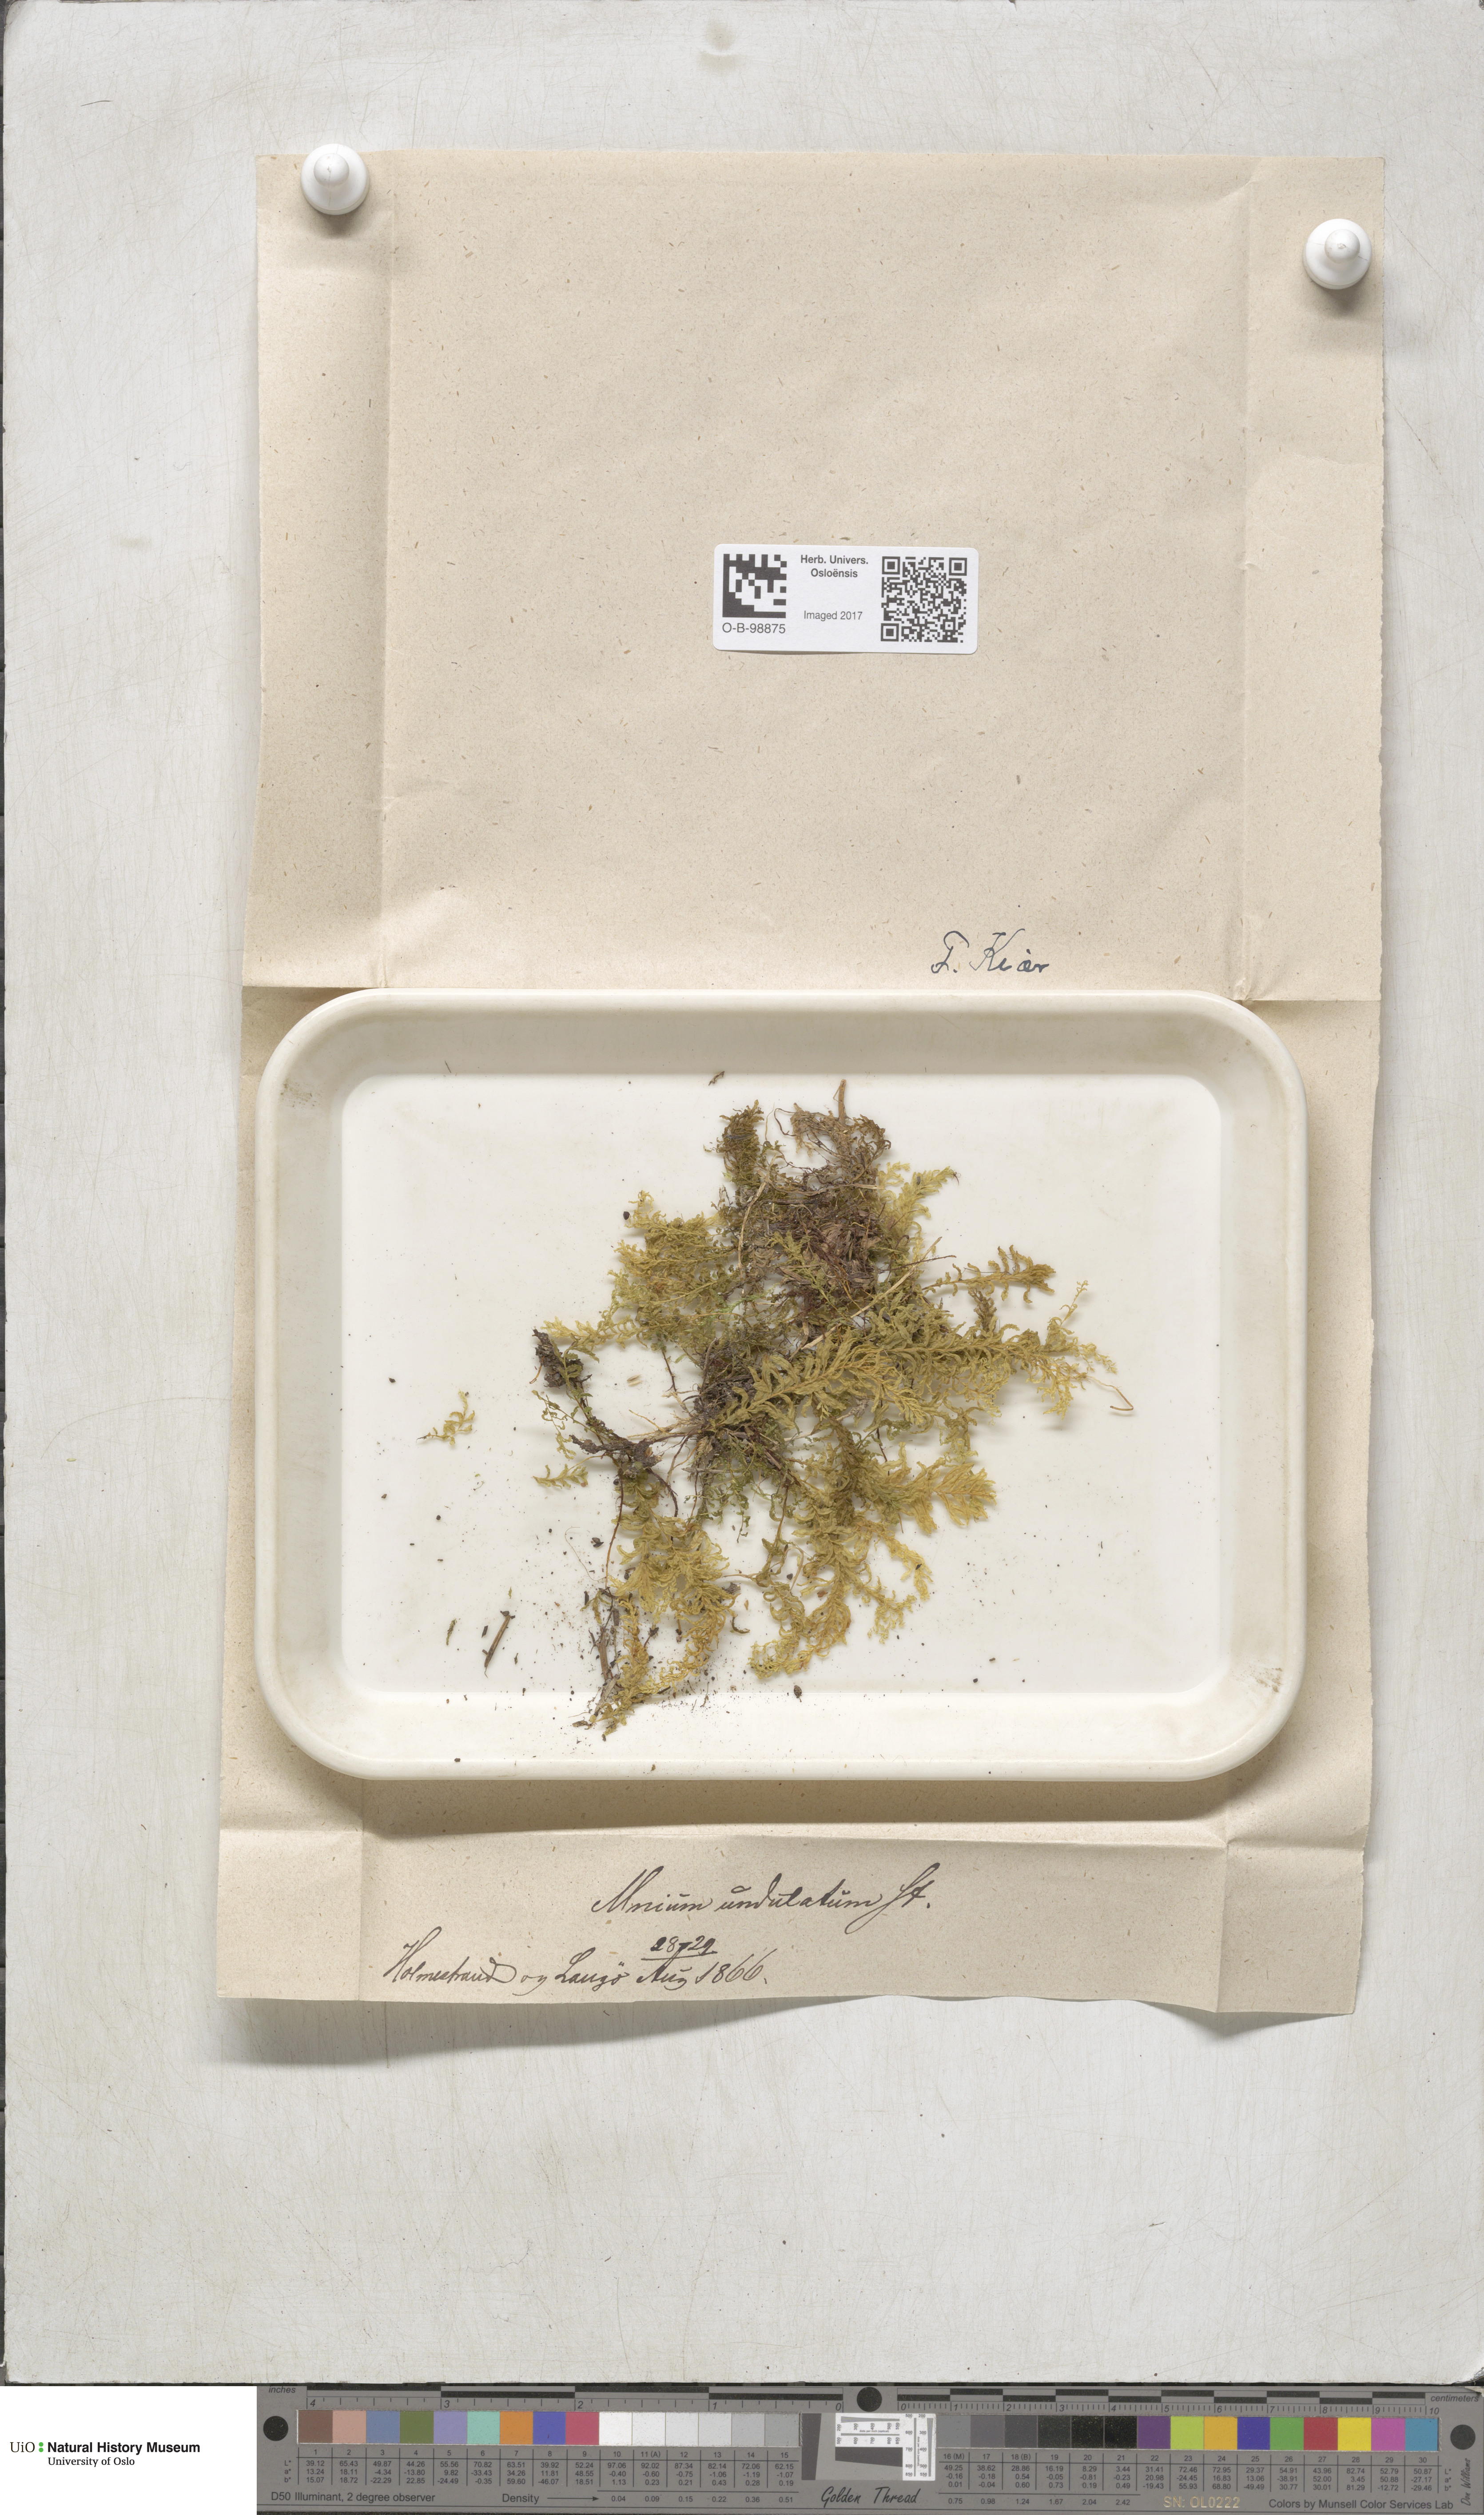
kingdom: Plantae
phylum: Bryophyta
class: Bryopsida
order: Bryales
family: Mniaceae
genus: Plagiomnium
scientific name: Plagiomnium undulatum
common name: Hart's-tongue thyme-moss
